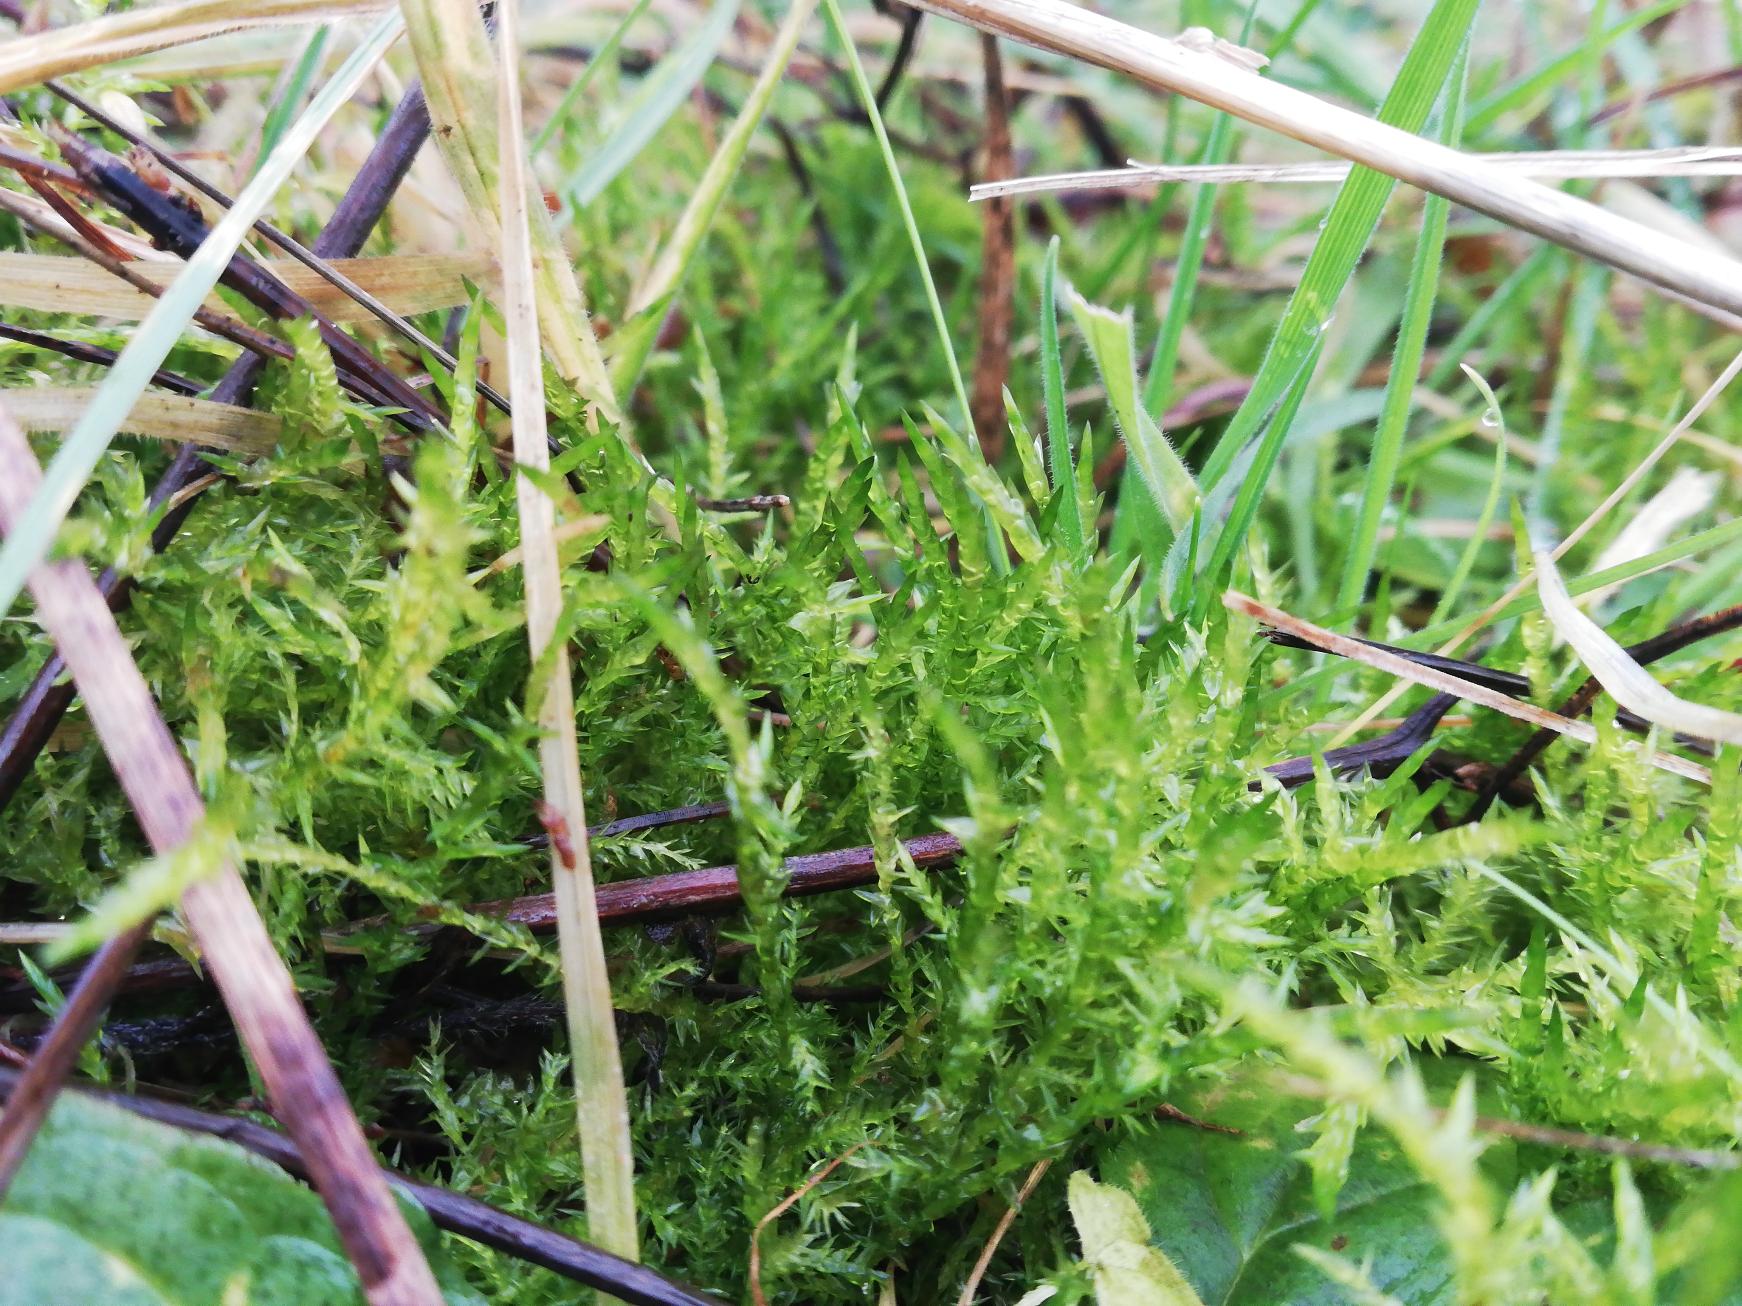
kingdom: Plantae
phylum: Bryophyta
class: Bryopsida
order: Hypnales
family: Pylaisiaceae
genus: Calliergonella
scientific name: Calliergonella cuspidata
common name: Spids spydmos
